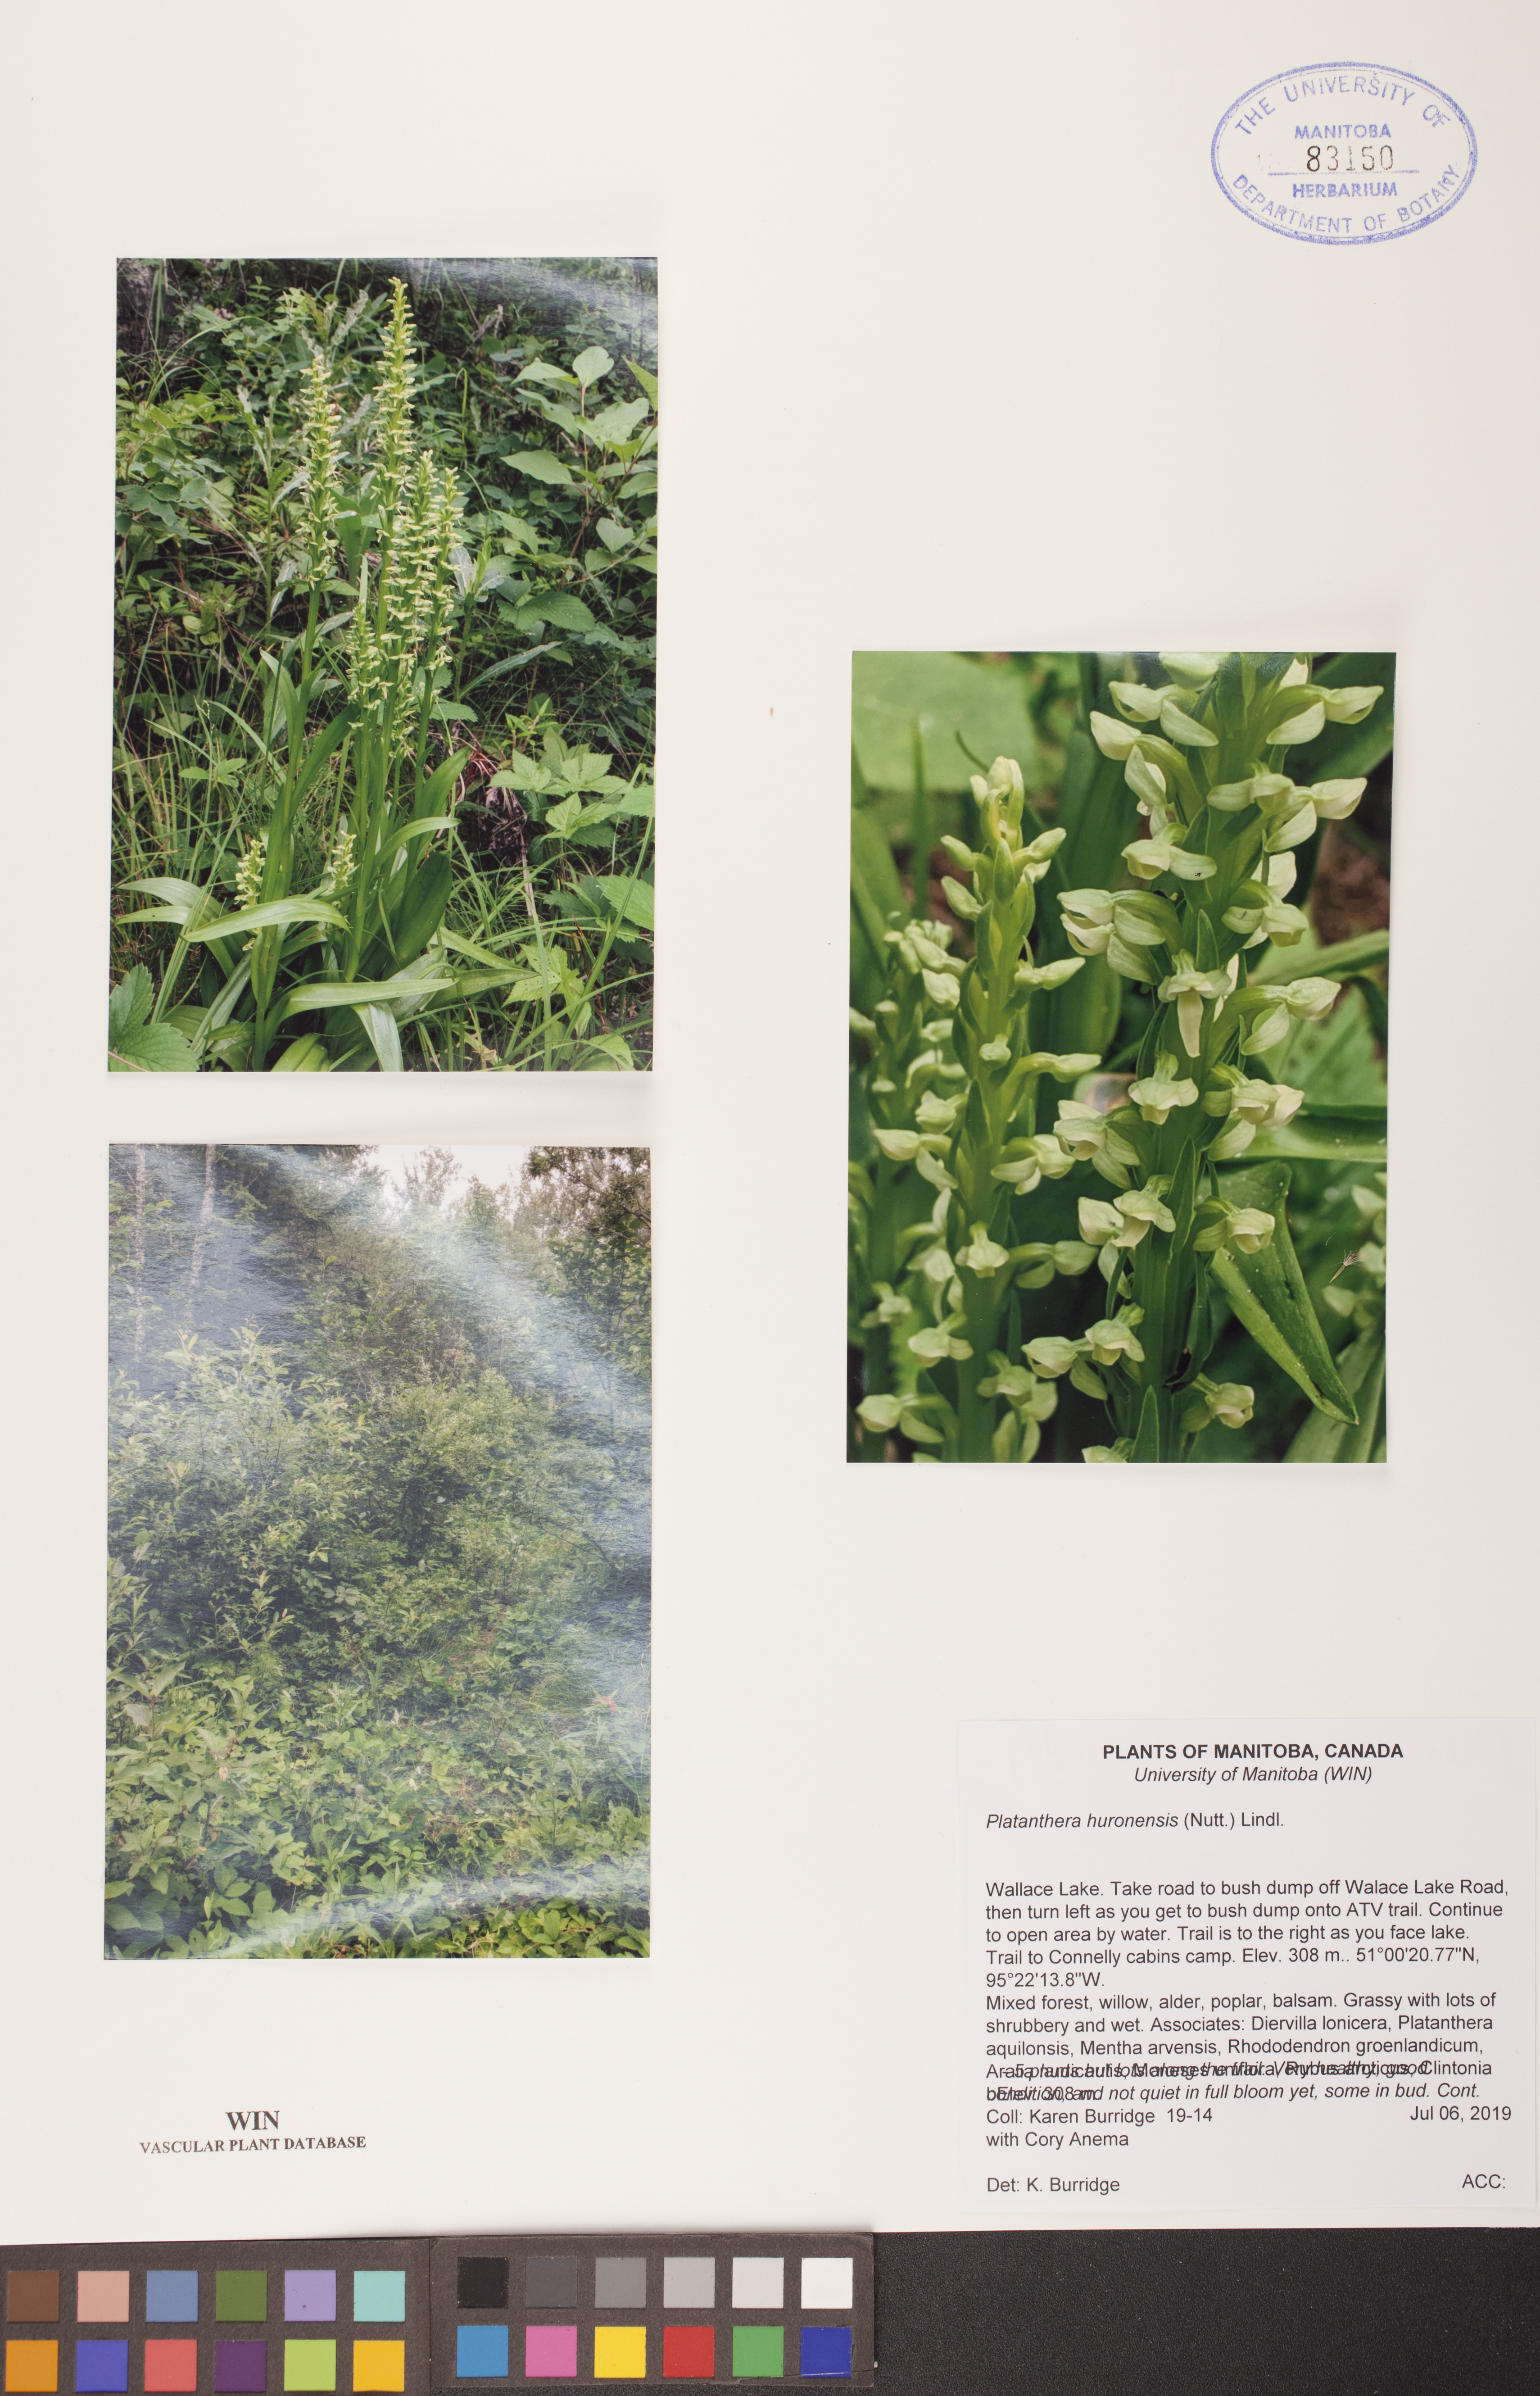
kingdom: Plantae
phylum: Tracheophyta
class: Liliopsida
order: Asparagales
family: Orchidaceae
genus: Platanthera
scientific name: Platanthera huronensis
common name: Fragrant green orchid
